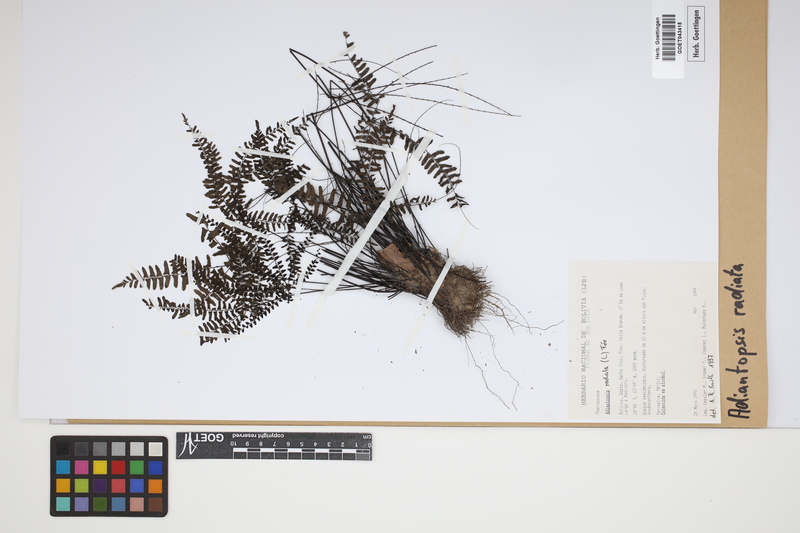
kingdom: Plantae
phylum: Tracheophyta
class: Polypodiopsida
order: Polypodiales
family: Pteridaceae
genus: Adiantopsis
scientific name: Adiantopsis radiata
